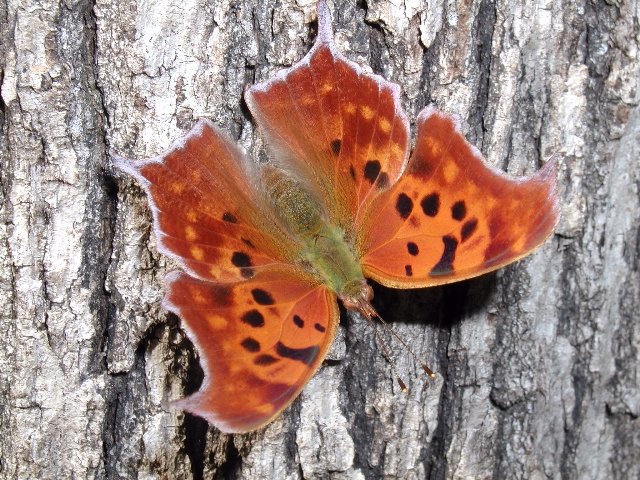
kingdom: Animalia
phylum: Arthropoda
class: Insecta
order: Lepidoptera
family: Nymphalidae
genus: Polygonia
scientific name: Polygonia interrogationis
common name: Question Mark
